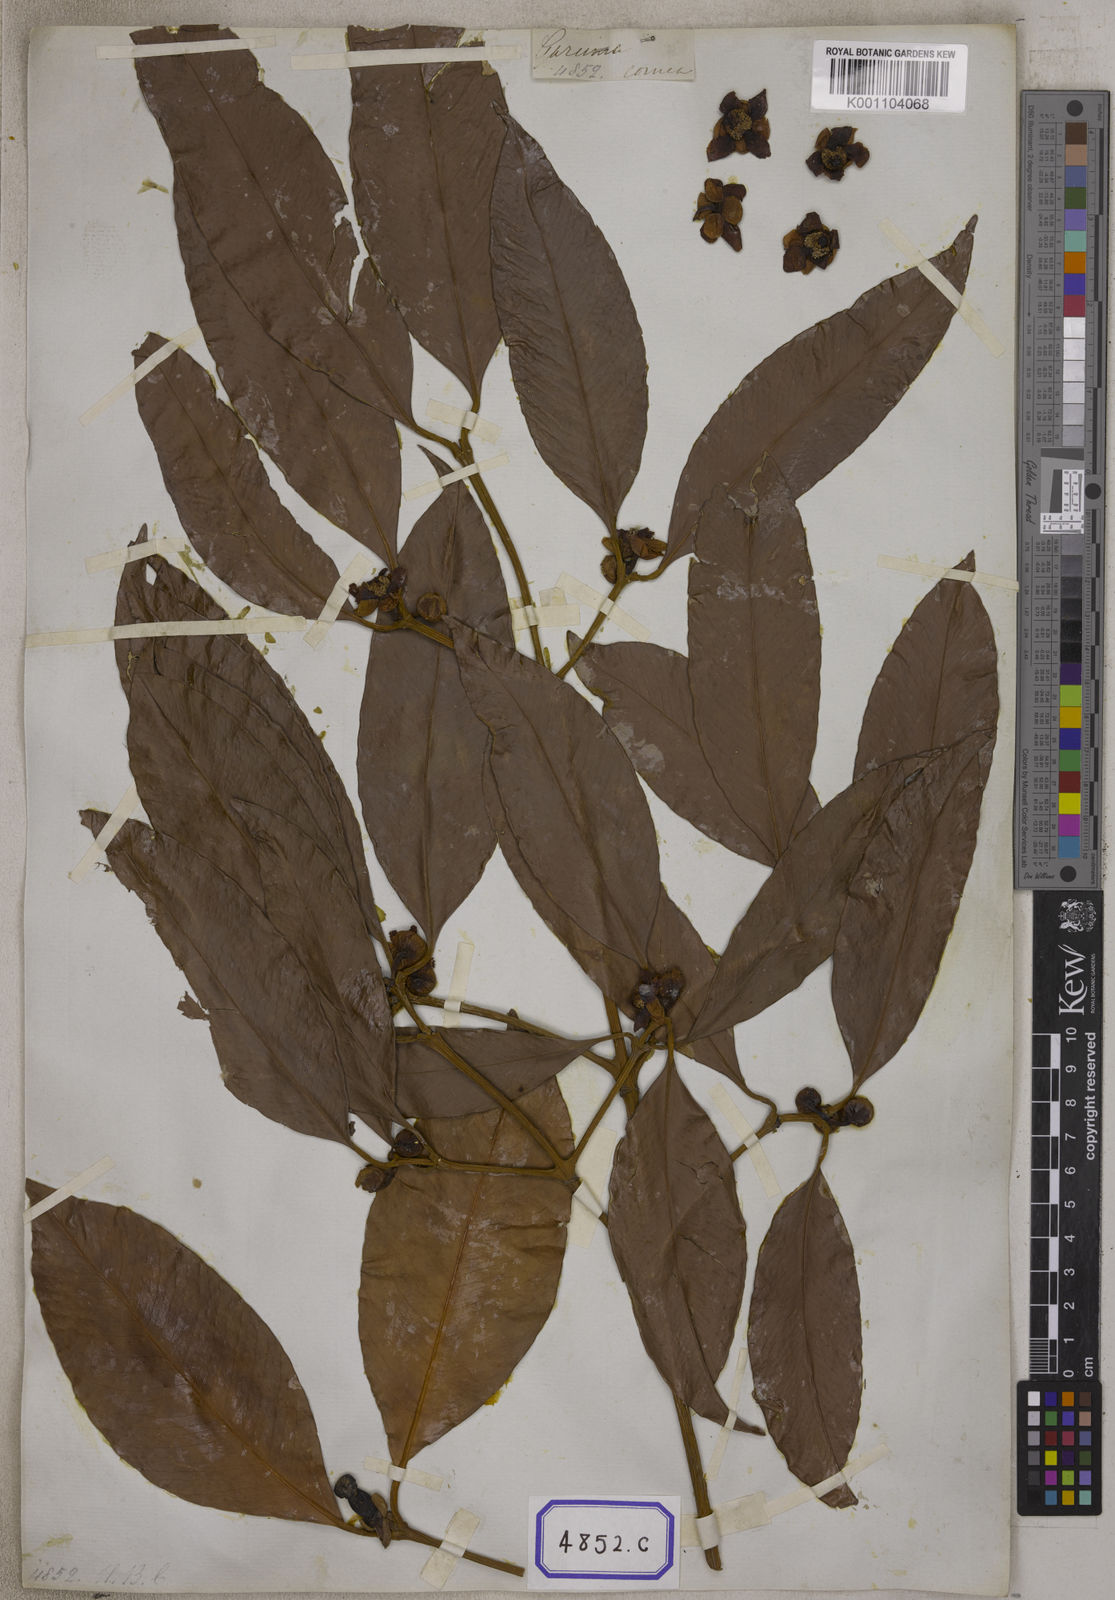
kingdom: Plantae
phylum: Tracheophyta
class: Magnoliopsida
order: Malpighiales
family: Clusiaceae
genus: Garcinia
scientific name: Garcinia celebica
